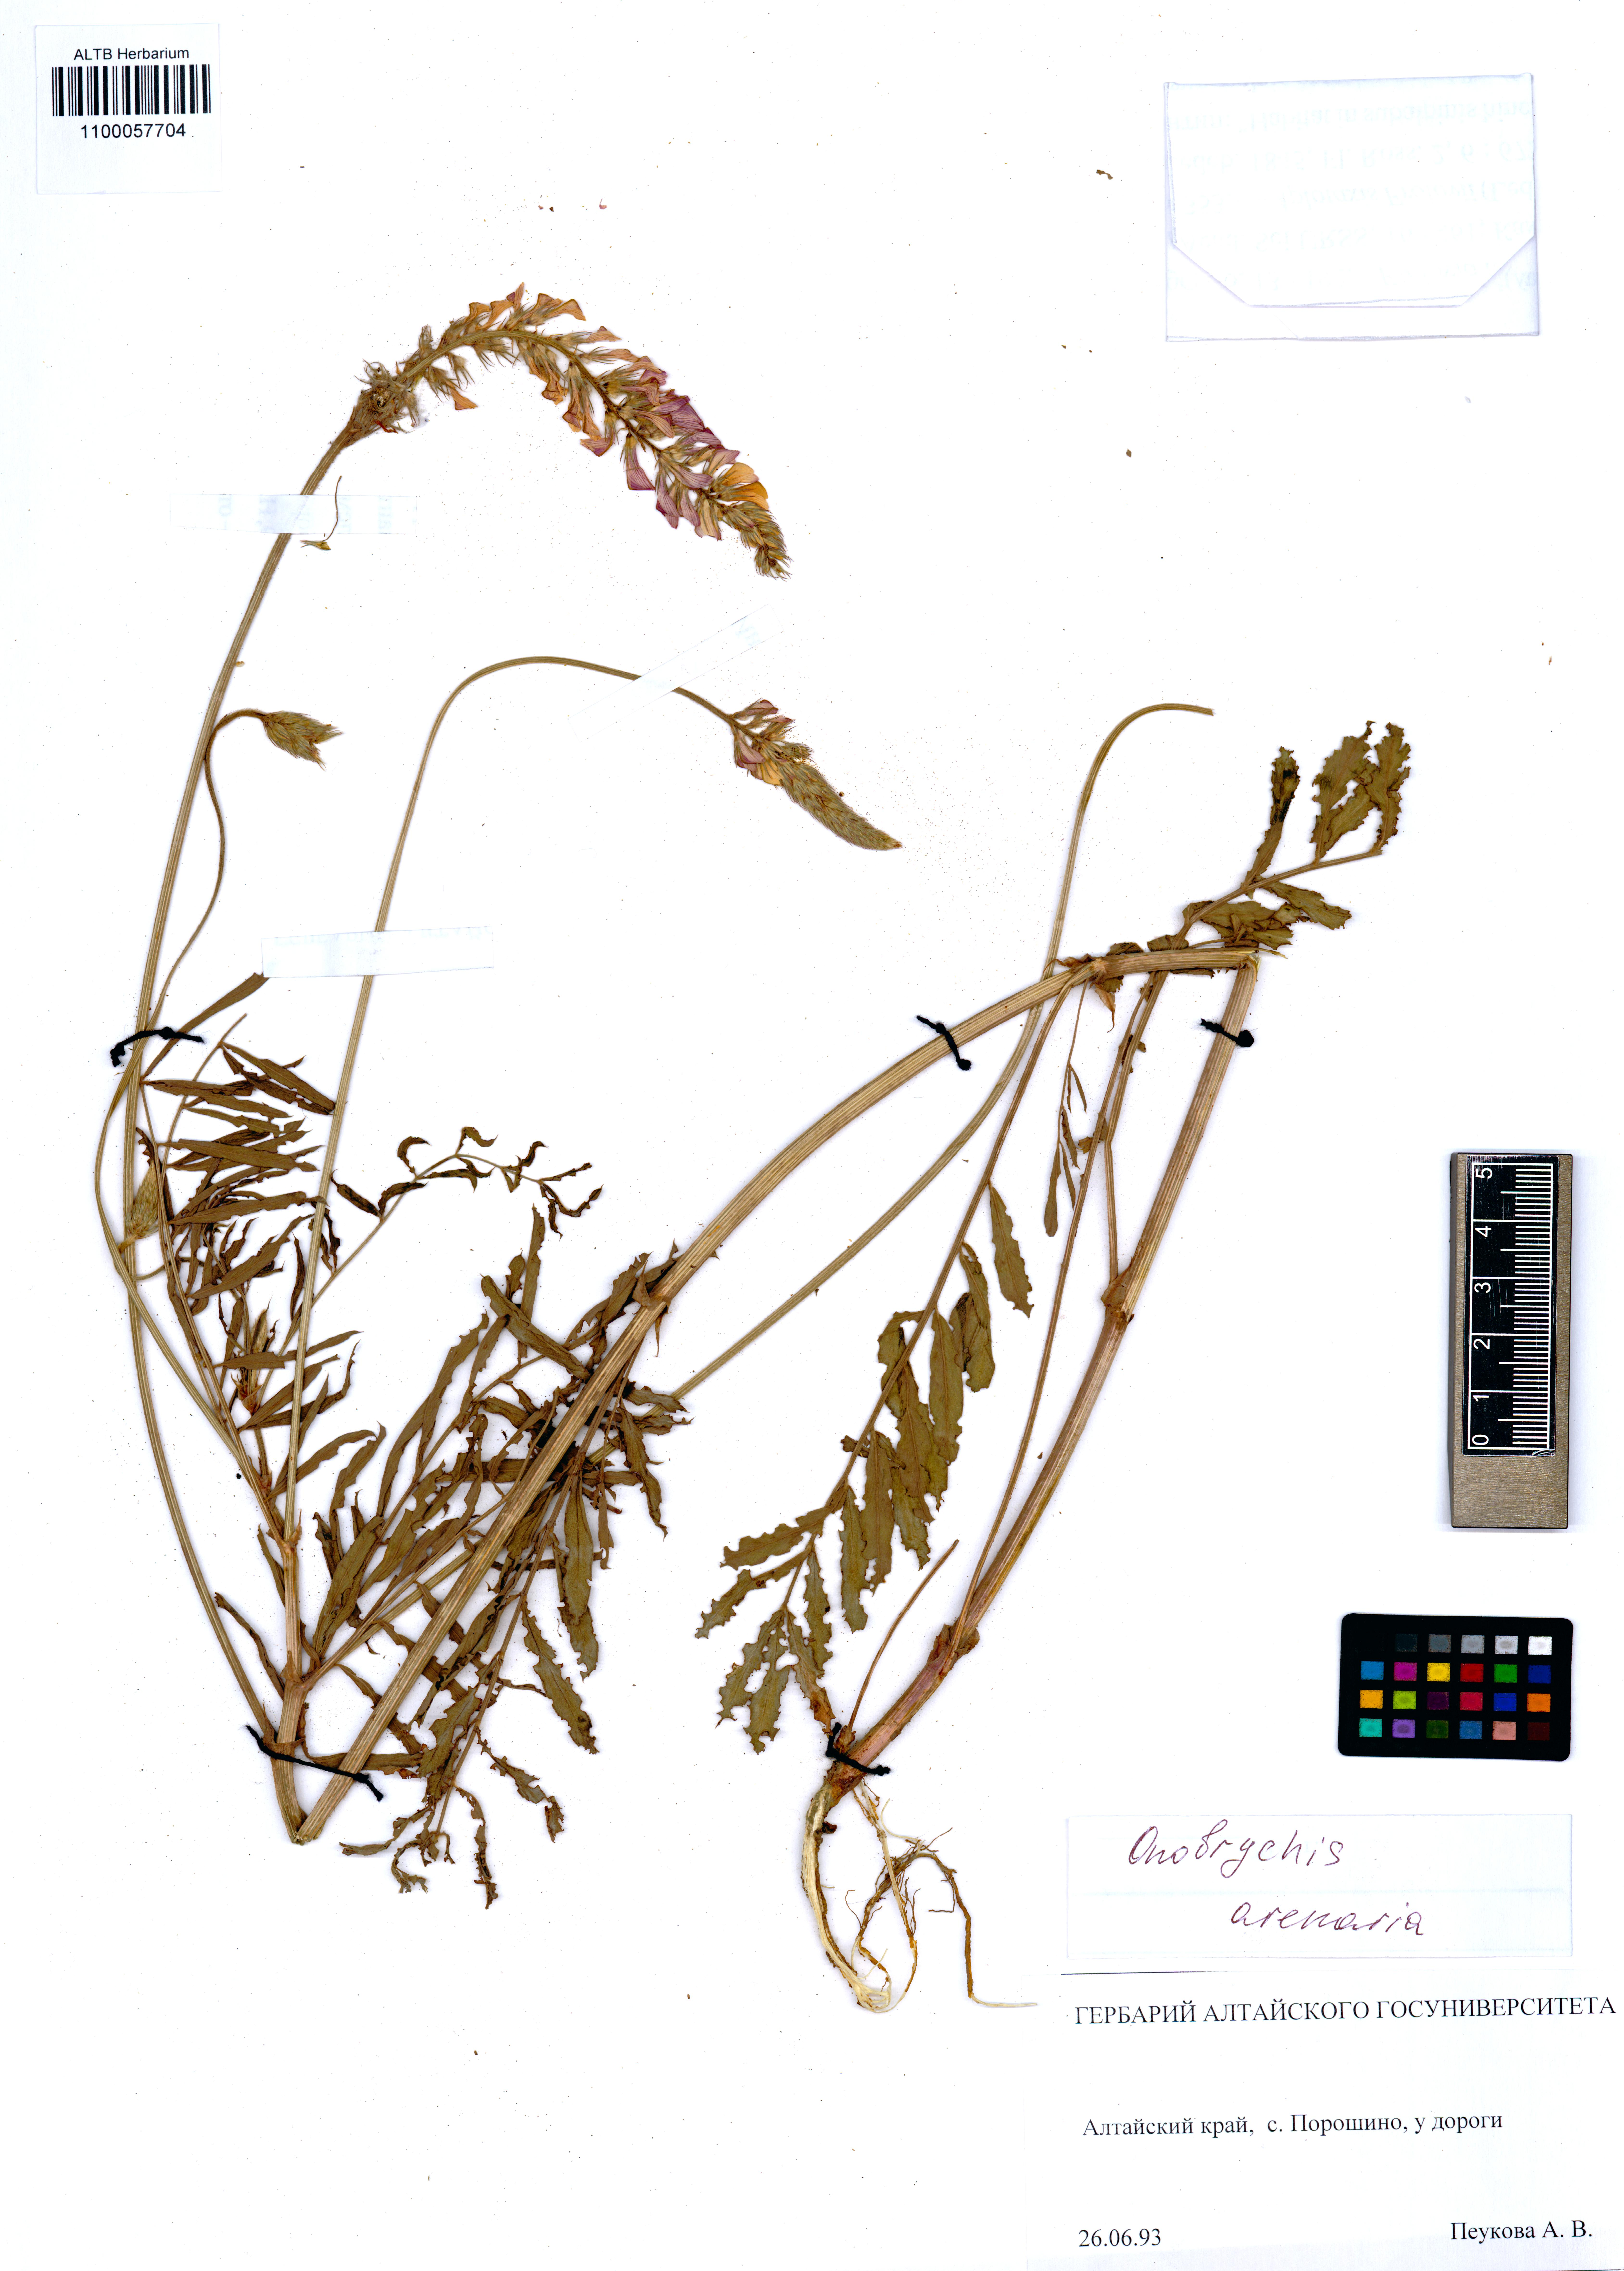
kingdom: Plantae
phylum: Tracheophyta
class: Magnoliopsida
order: Fabales
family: Fabaceae
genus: Onobrychis
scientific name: Onobrychis arenaria
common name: Sand esparcet
